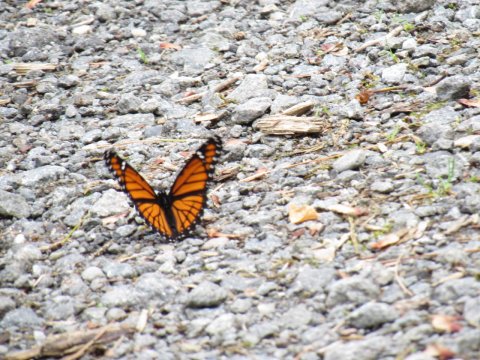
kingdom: Animalia
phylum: Arthropoda
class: Insecta
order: Lepidoptera
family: Nymphalidae
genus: Limenitis
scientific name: Limenitis archippus
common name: Viceroy
